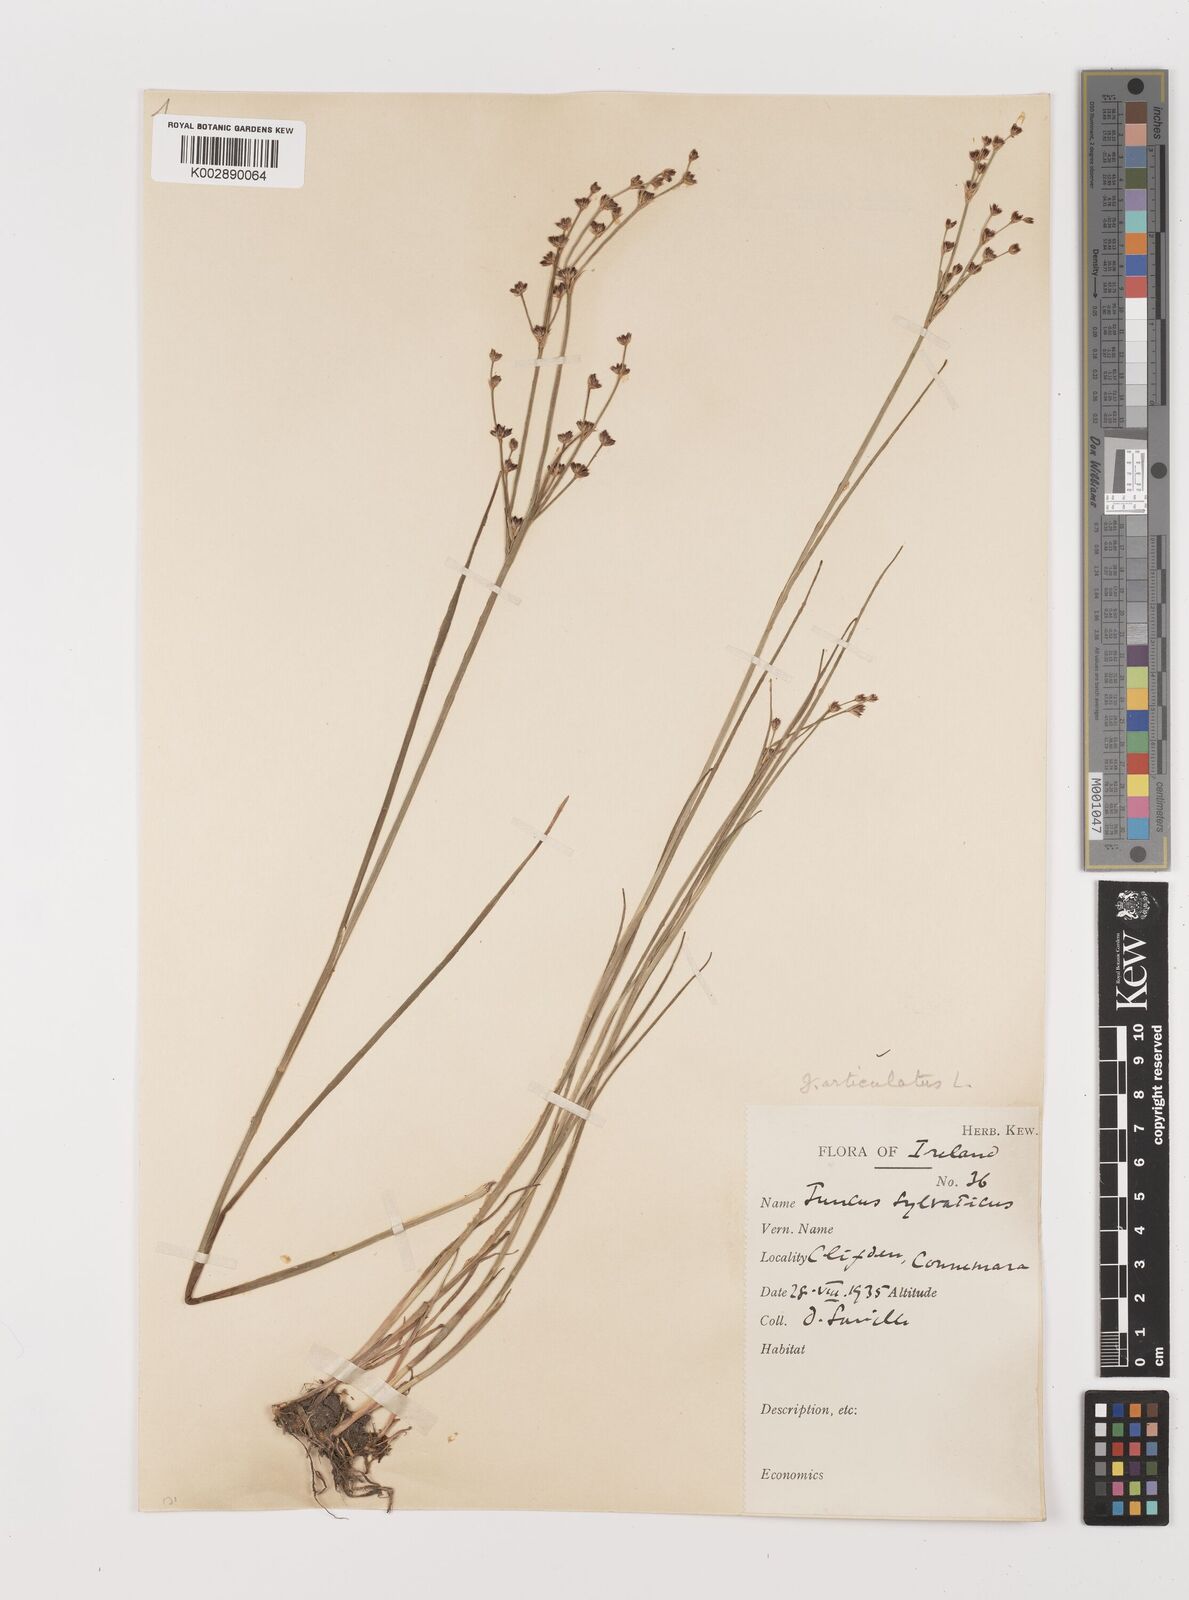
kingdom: Plantae
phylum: Tracheophyta
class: Liliopsida
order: Poales
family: Juncaceae
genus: Juncus
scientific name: Juncus articulatus
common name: Jointed rush
